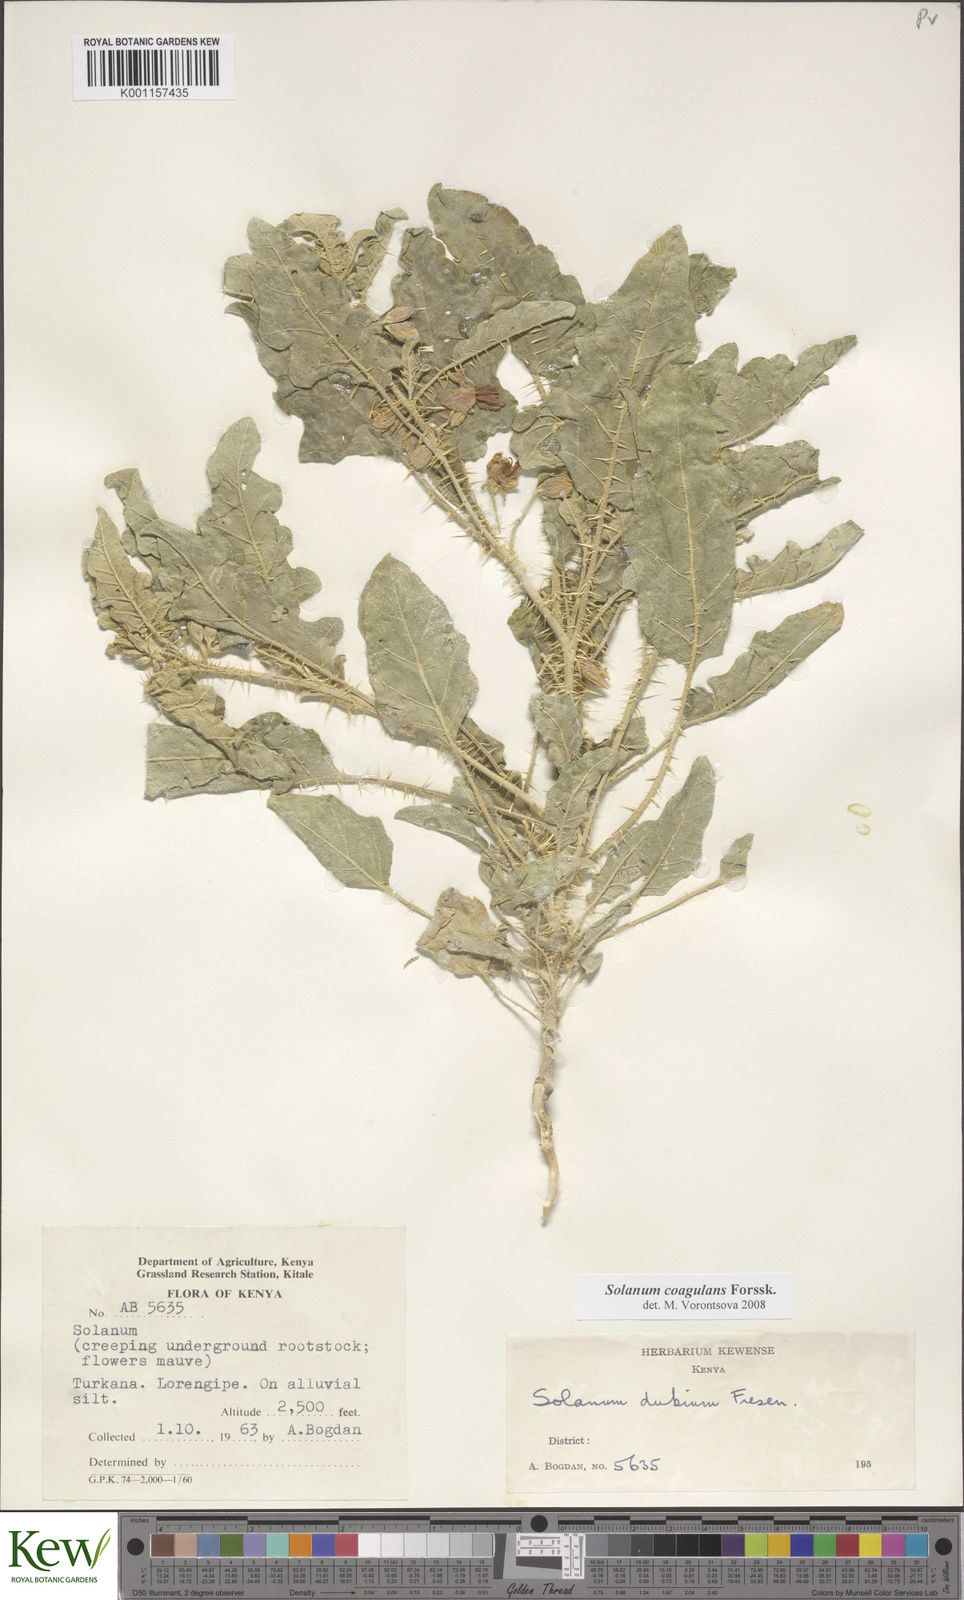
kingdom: Plantae
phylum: Tracheophyta
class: Magnoliopsida
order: Solanales
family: Solanaceae
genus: Solanum
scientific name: Solanum coagulans
